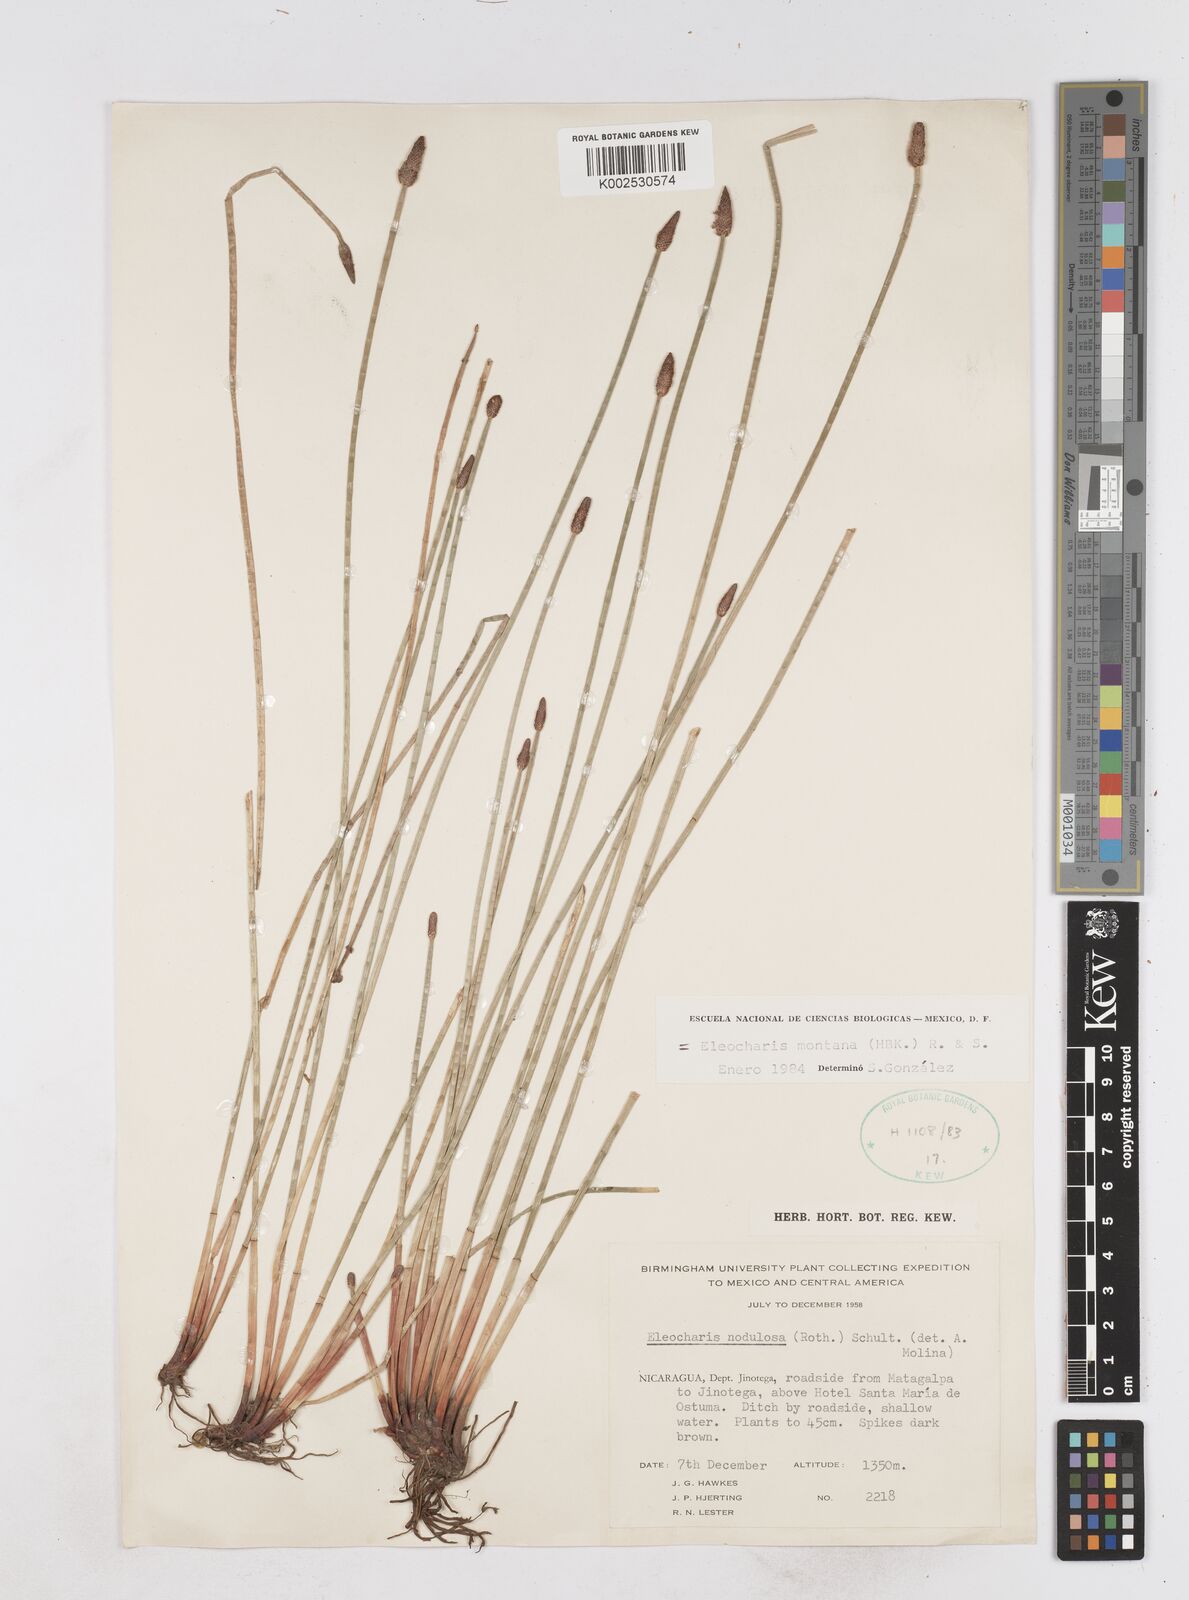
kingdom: Plantae
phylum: Tracheophyta
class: Liliopsida
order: Poales
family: Cyperaceae
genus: Eleocharis
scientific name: Eleocharis montana
